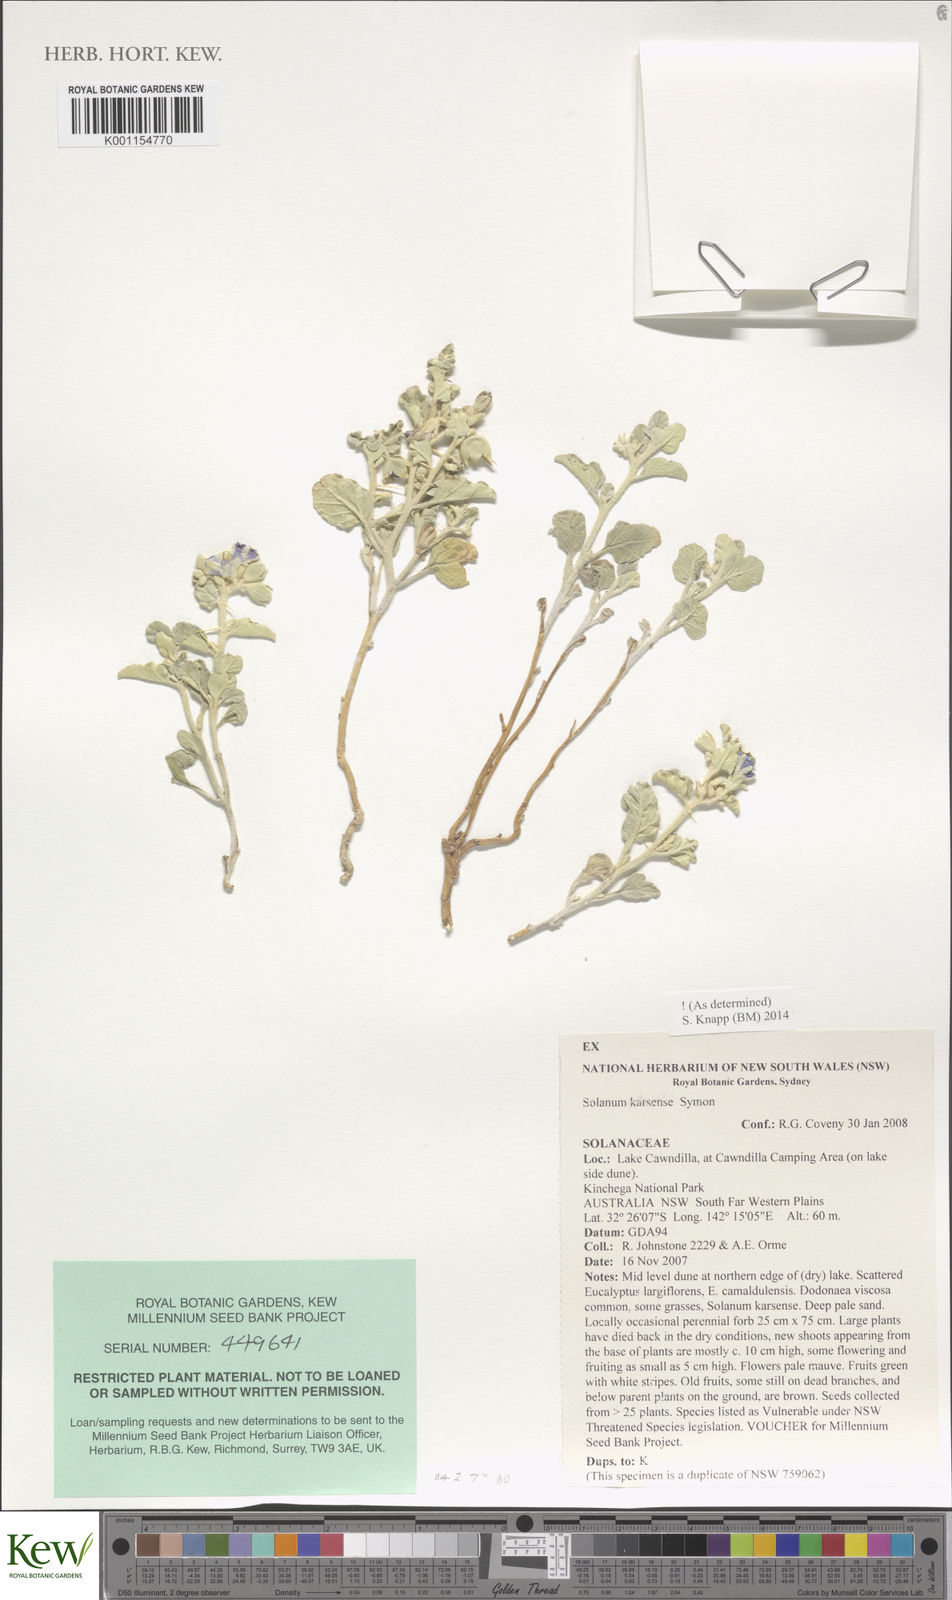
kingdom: Plantae
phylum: Tracheophyta
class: Magnoliopsida
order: Solanales
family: Solanaceae
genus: Solanum
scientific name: Solanum karsense
